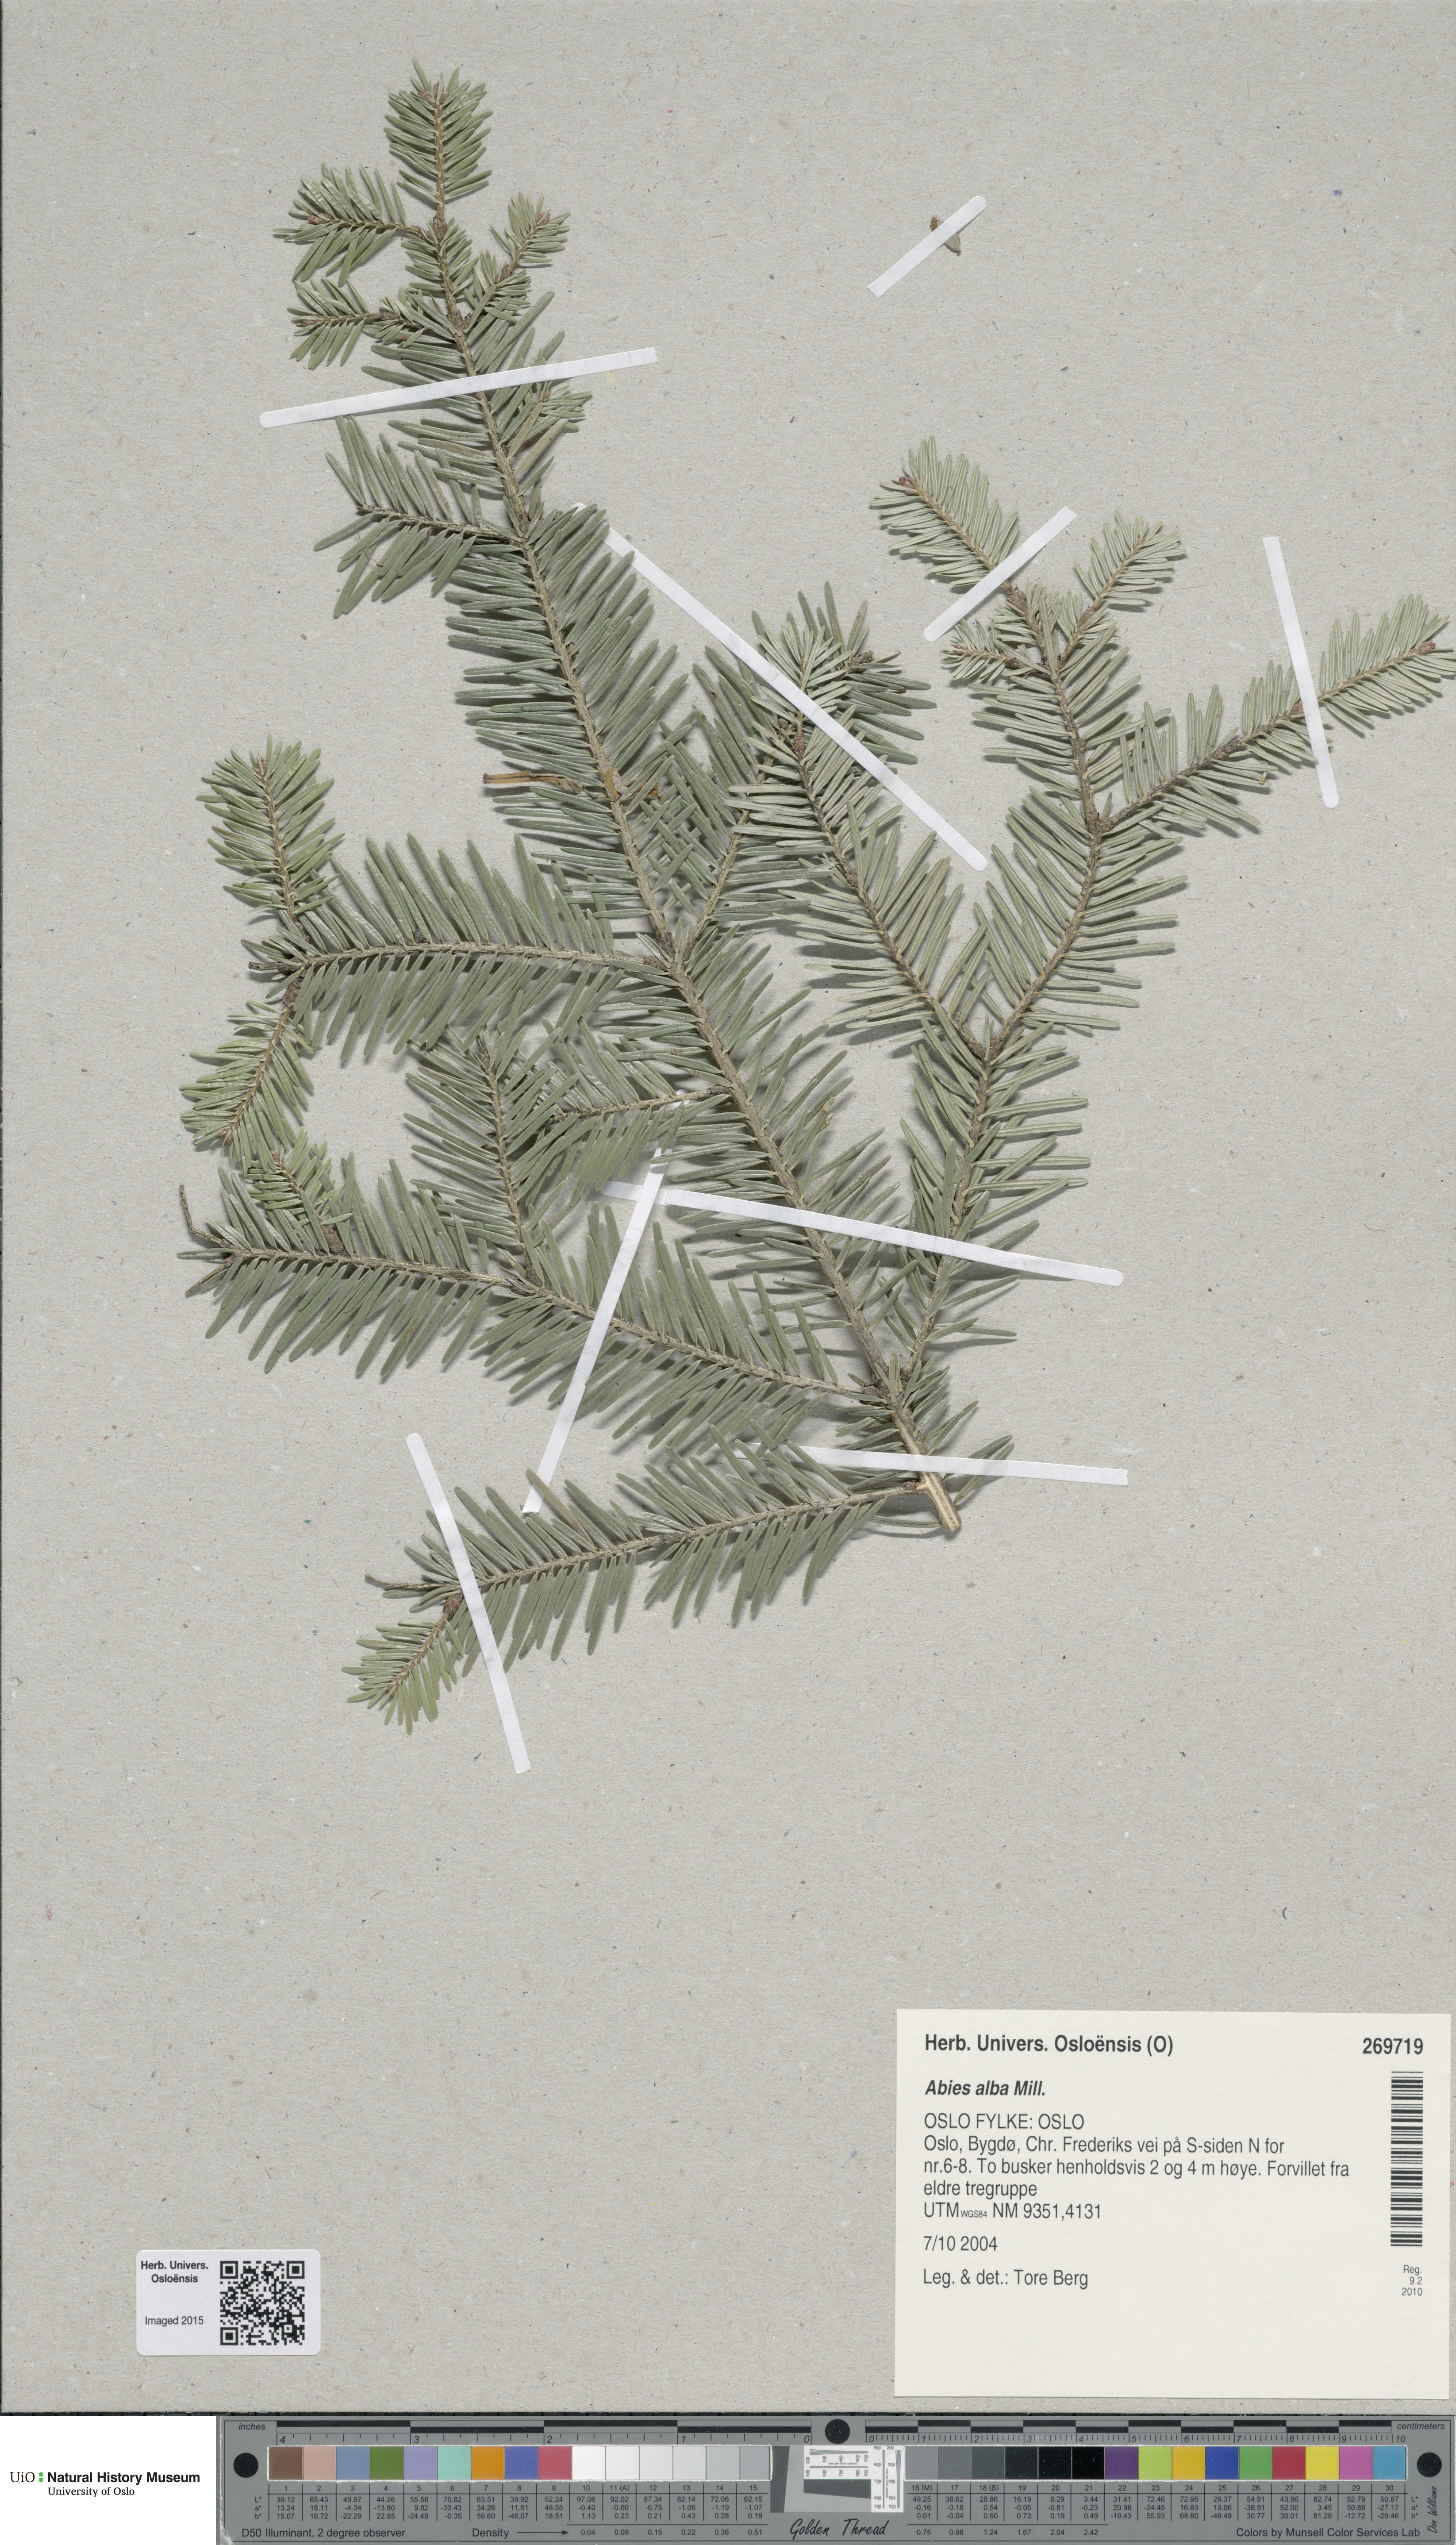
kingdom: Plantae
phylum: Tracheophyta
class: Pinopsida
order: Pinales
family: Pinaceae
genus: Abies
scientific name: Abies alba
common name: Silver fir
